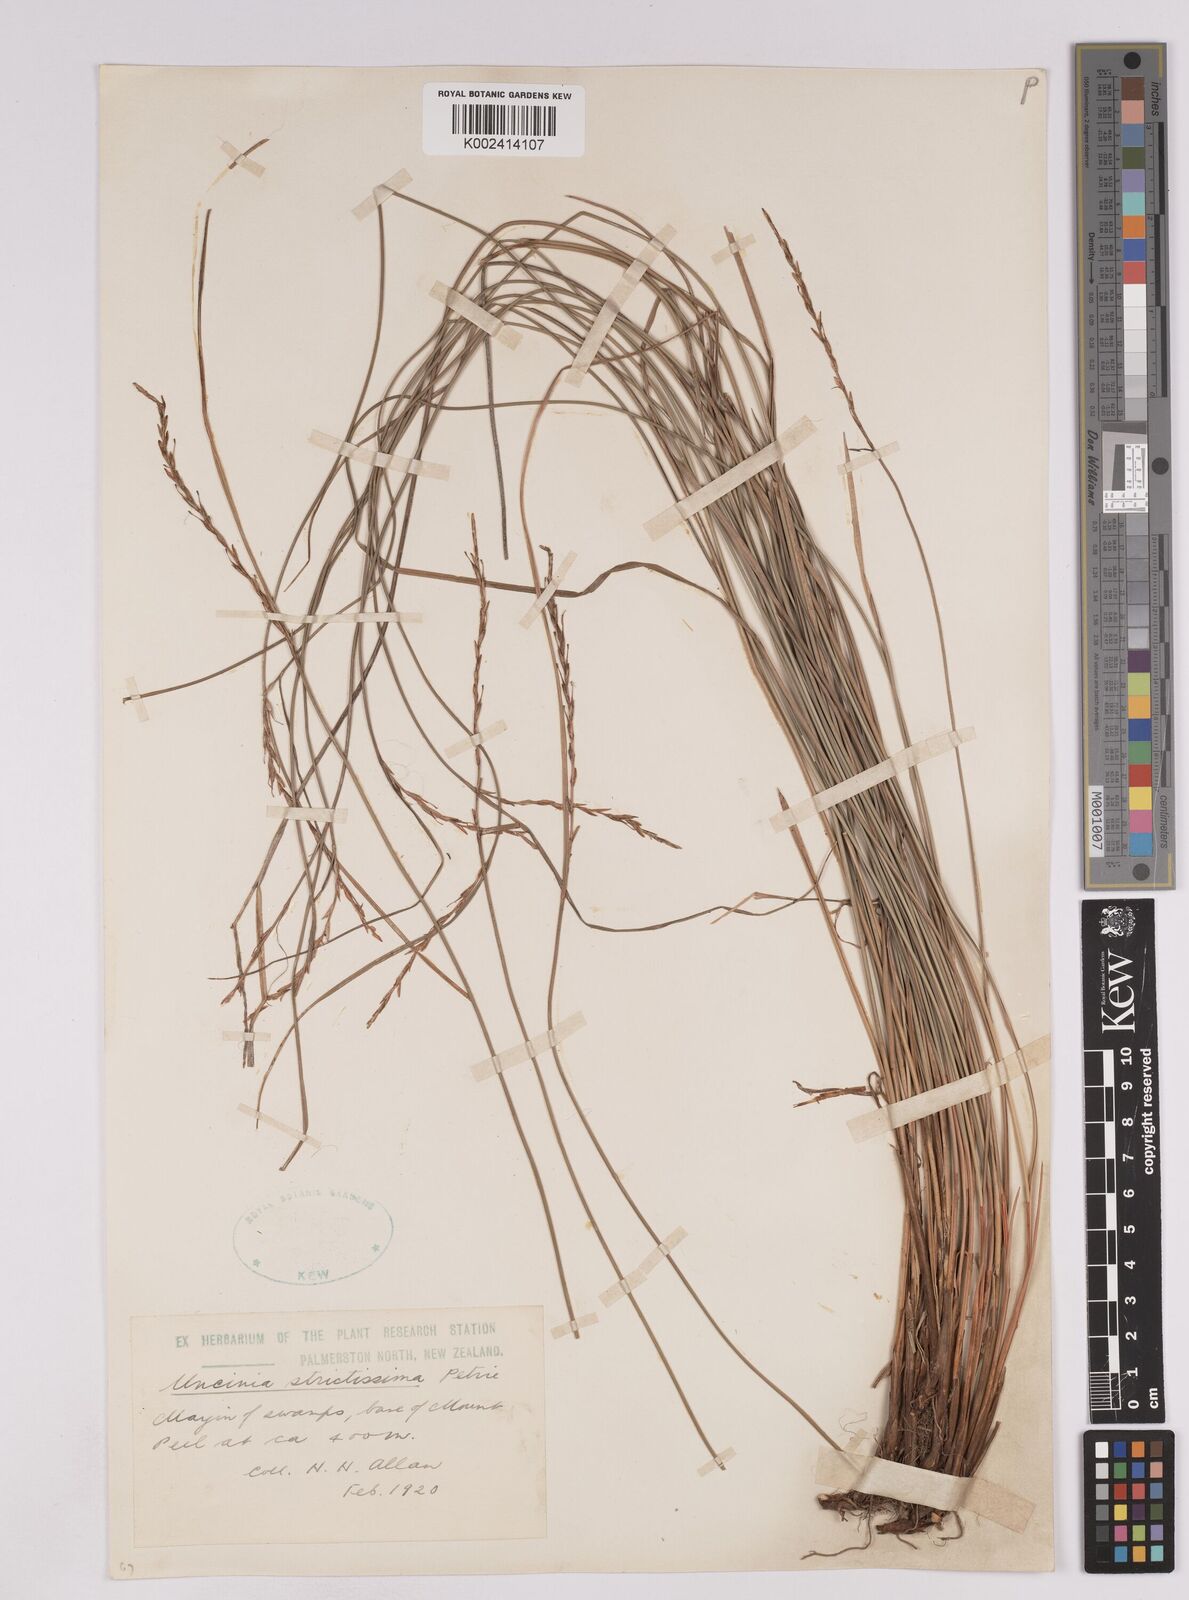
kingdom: Plantae
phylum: Tracheophyta
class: Liliopsida
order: Poales
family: Cyperaceae
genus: Carex
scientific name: Carex strictissima
